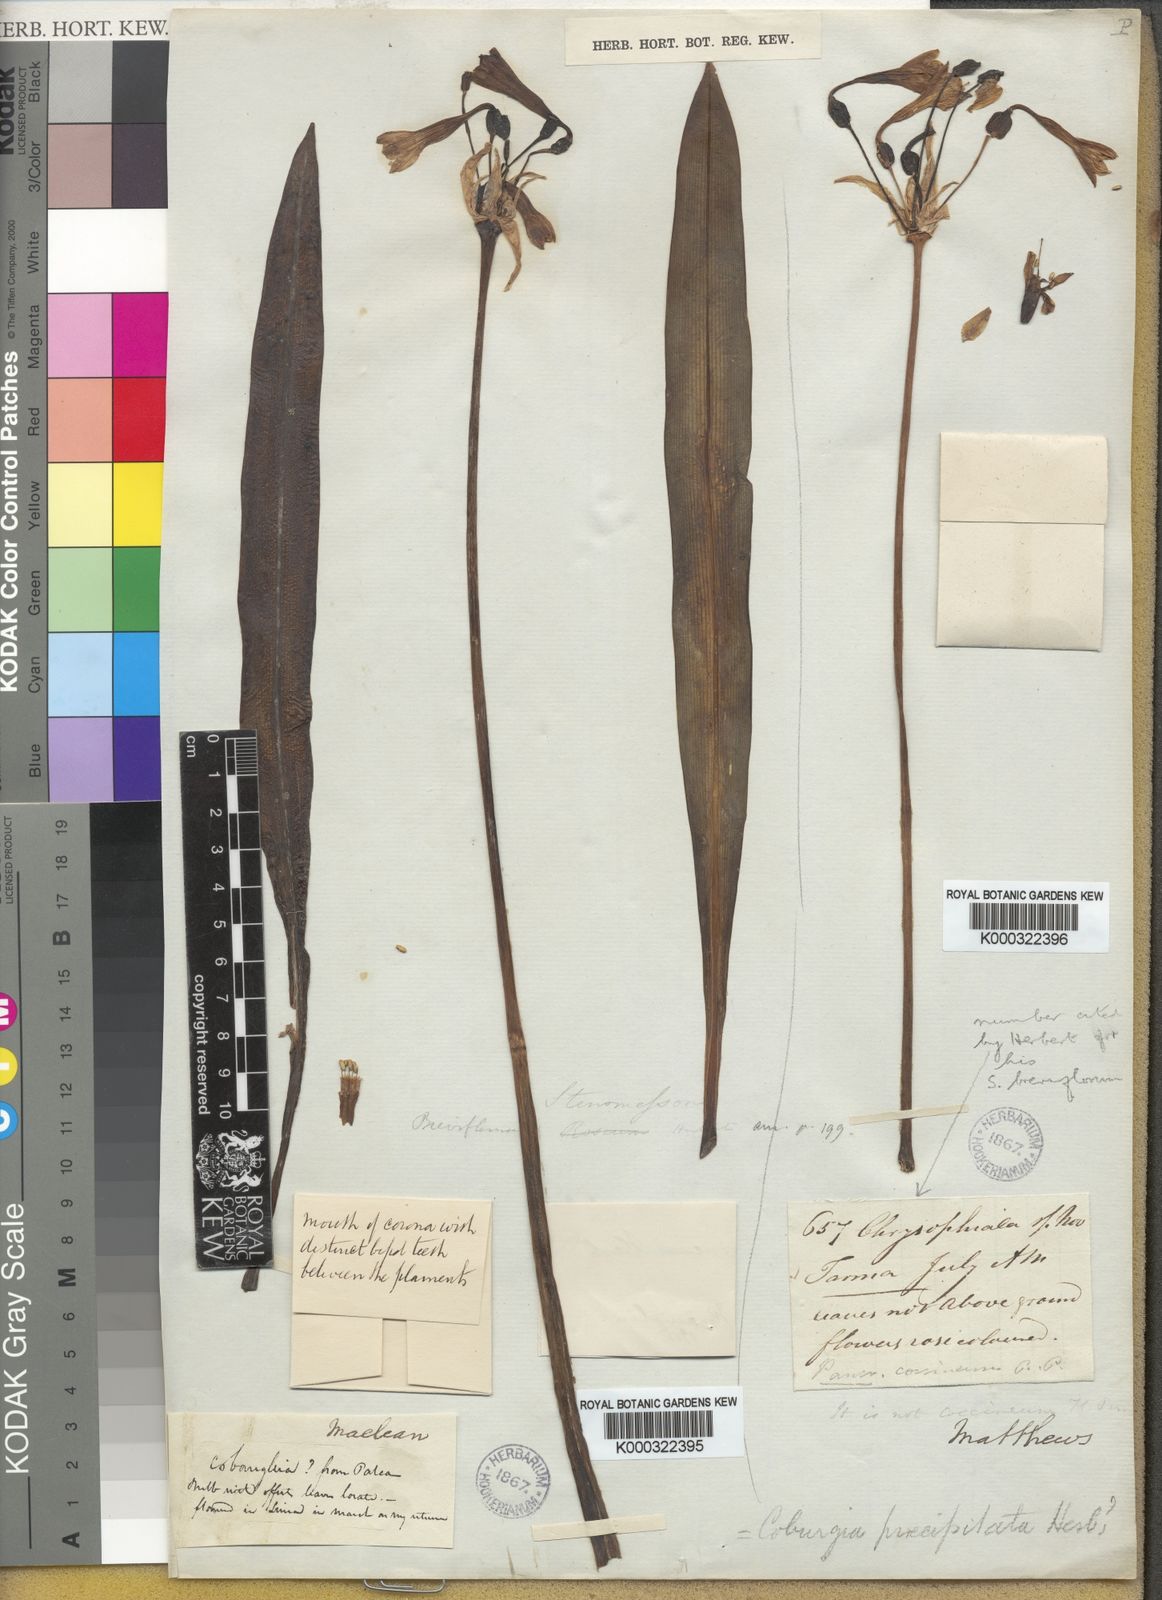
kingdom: Plantae
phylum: Tracheophyta
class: Liliopsida
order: Asparagales
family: Amaryllidaceae
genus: Stenomesson
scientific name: Stenomesson
